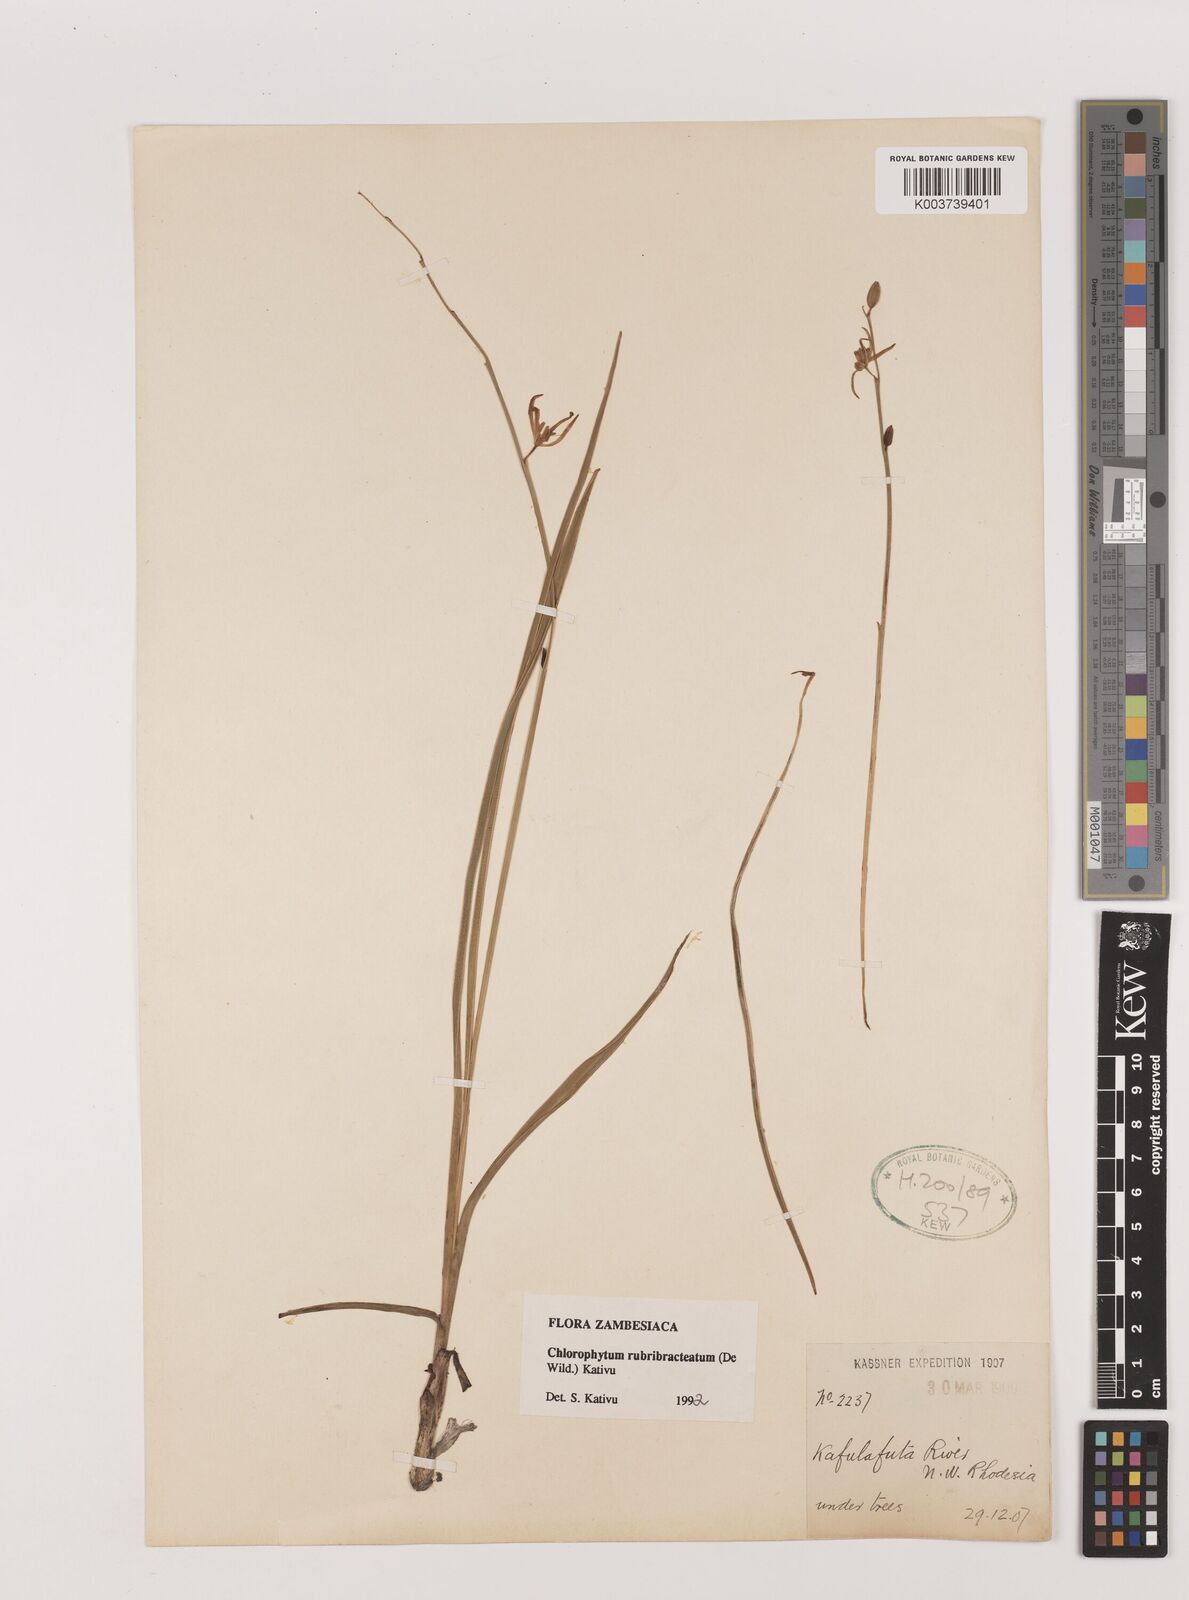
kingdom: Plantae
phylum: Tracheophyta
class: Liliopsida
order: Asparagales
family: Asparagaceae
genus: Chlorophytum
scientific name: Chlorophytum rubribracteatum
